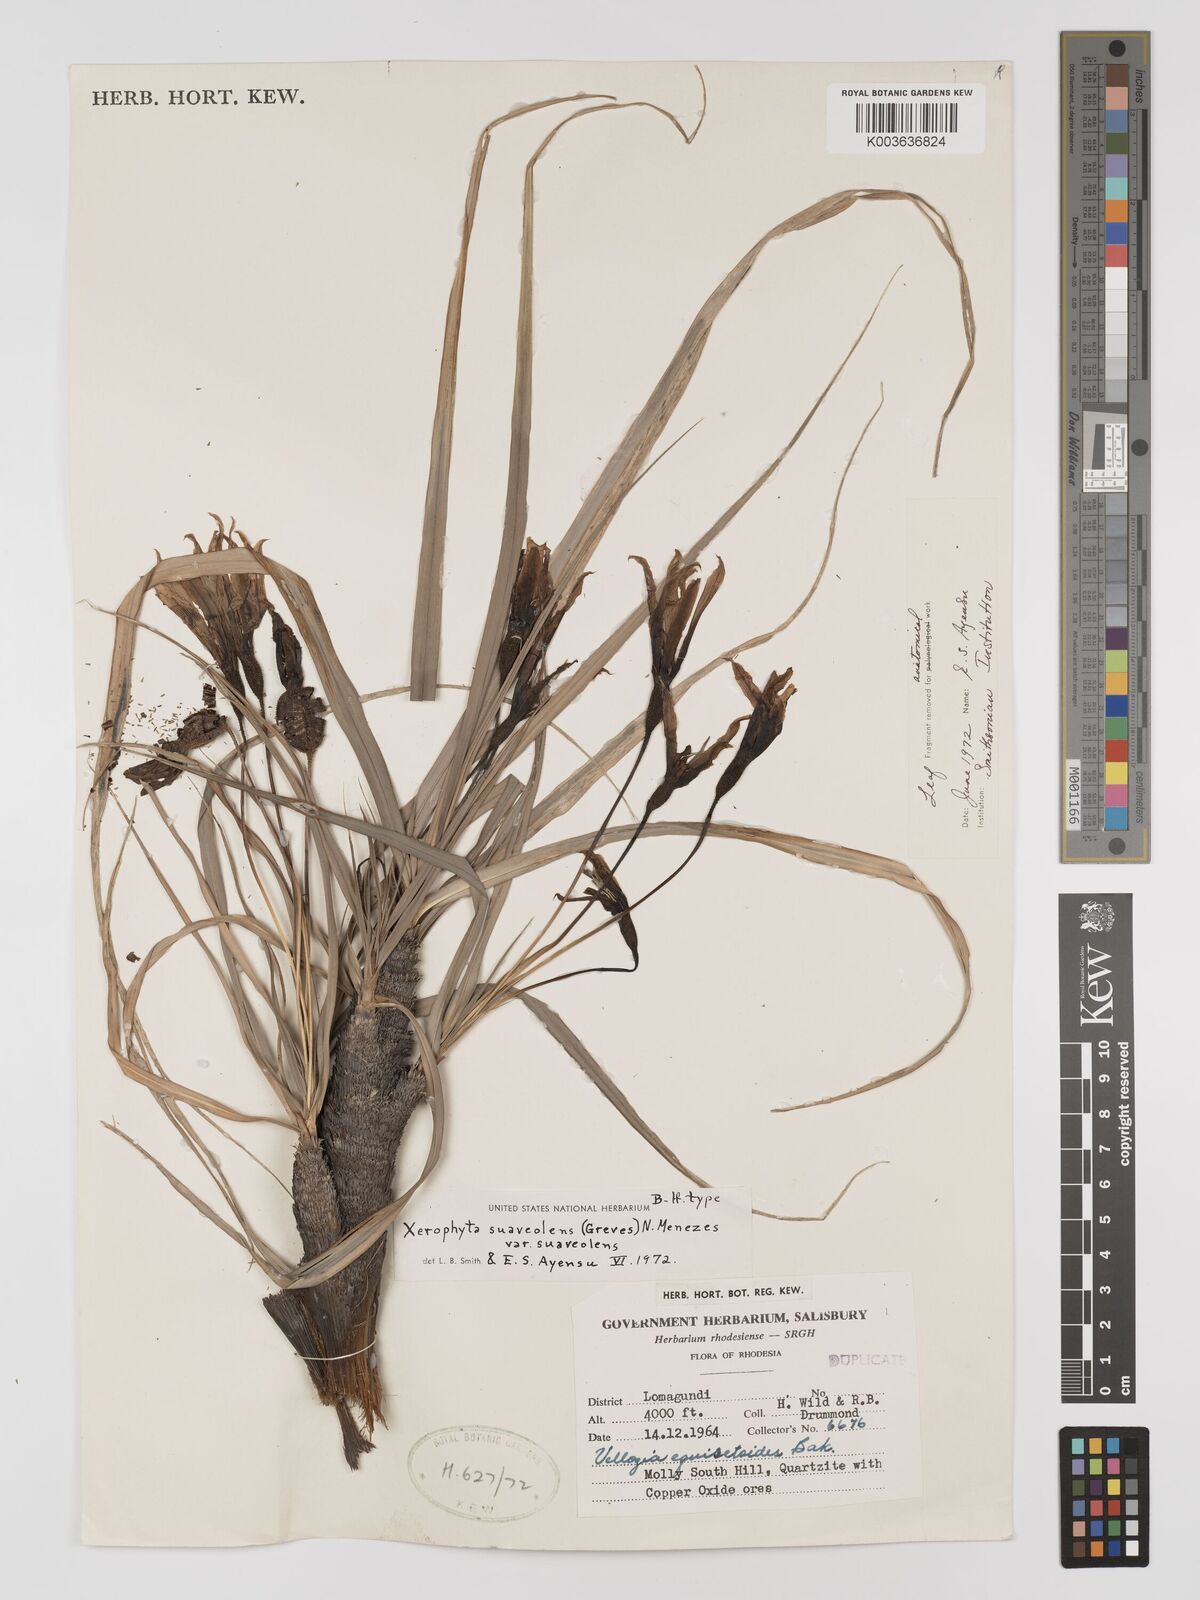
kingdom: Plantae
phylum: Tracheophyta
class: Liliopsida
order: Pandanales
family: Velloziaceae
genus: Xerophyta
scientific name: Xerophyta suaveolens
